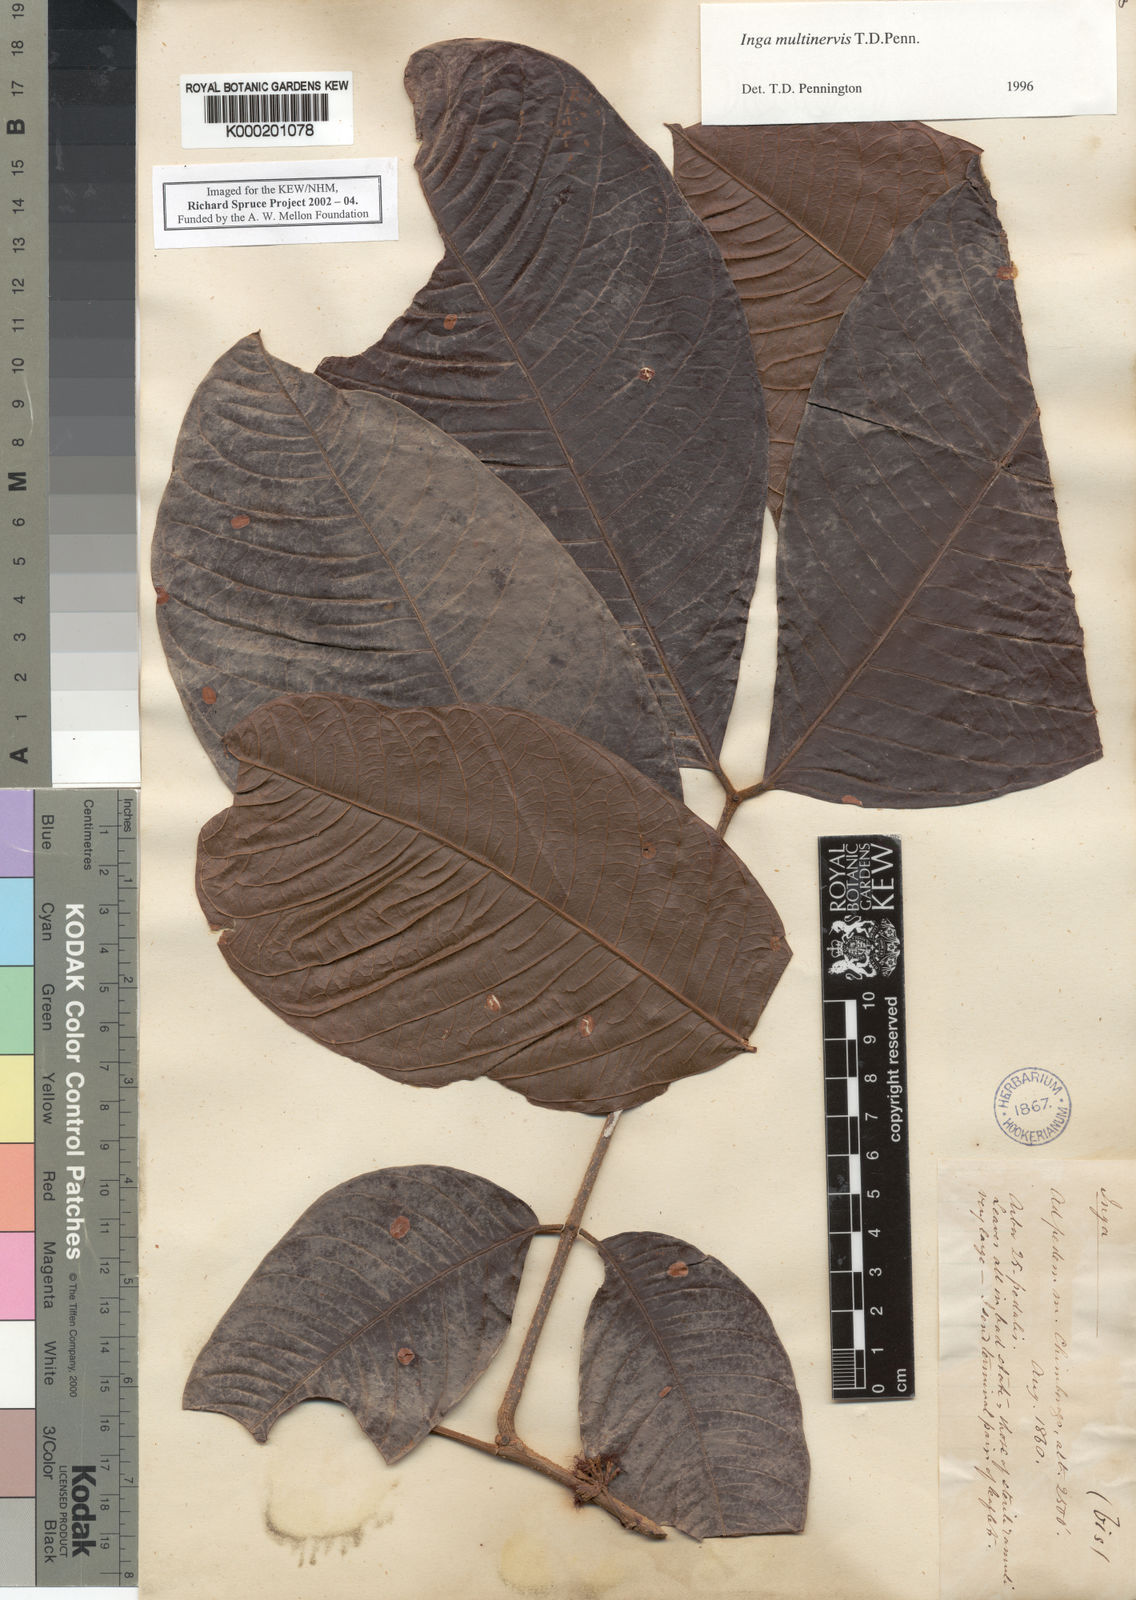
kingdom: Plantae
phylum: Tracheophyta
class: Magnoliopsida
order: Fabales
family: Fabaceae
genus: Inga
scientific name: Inga multinervis
